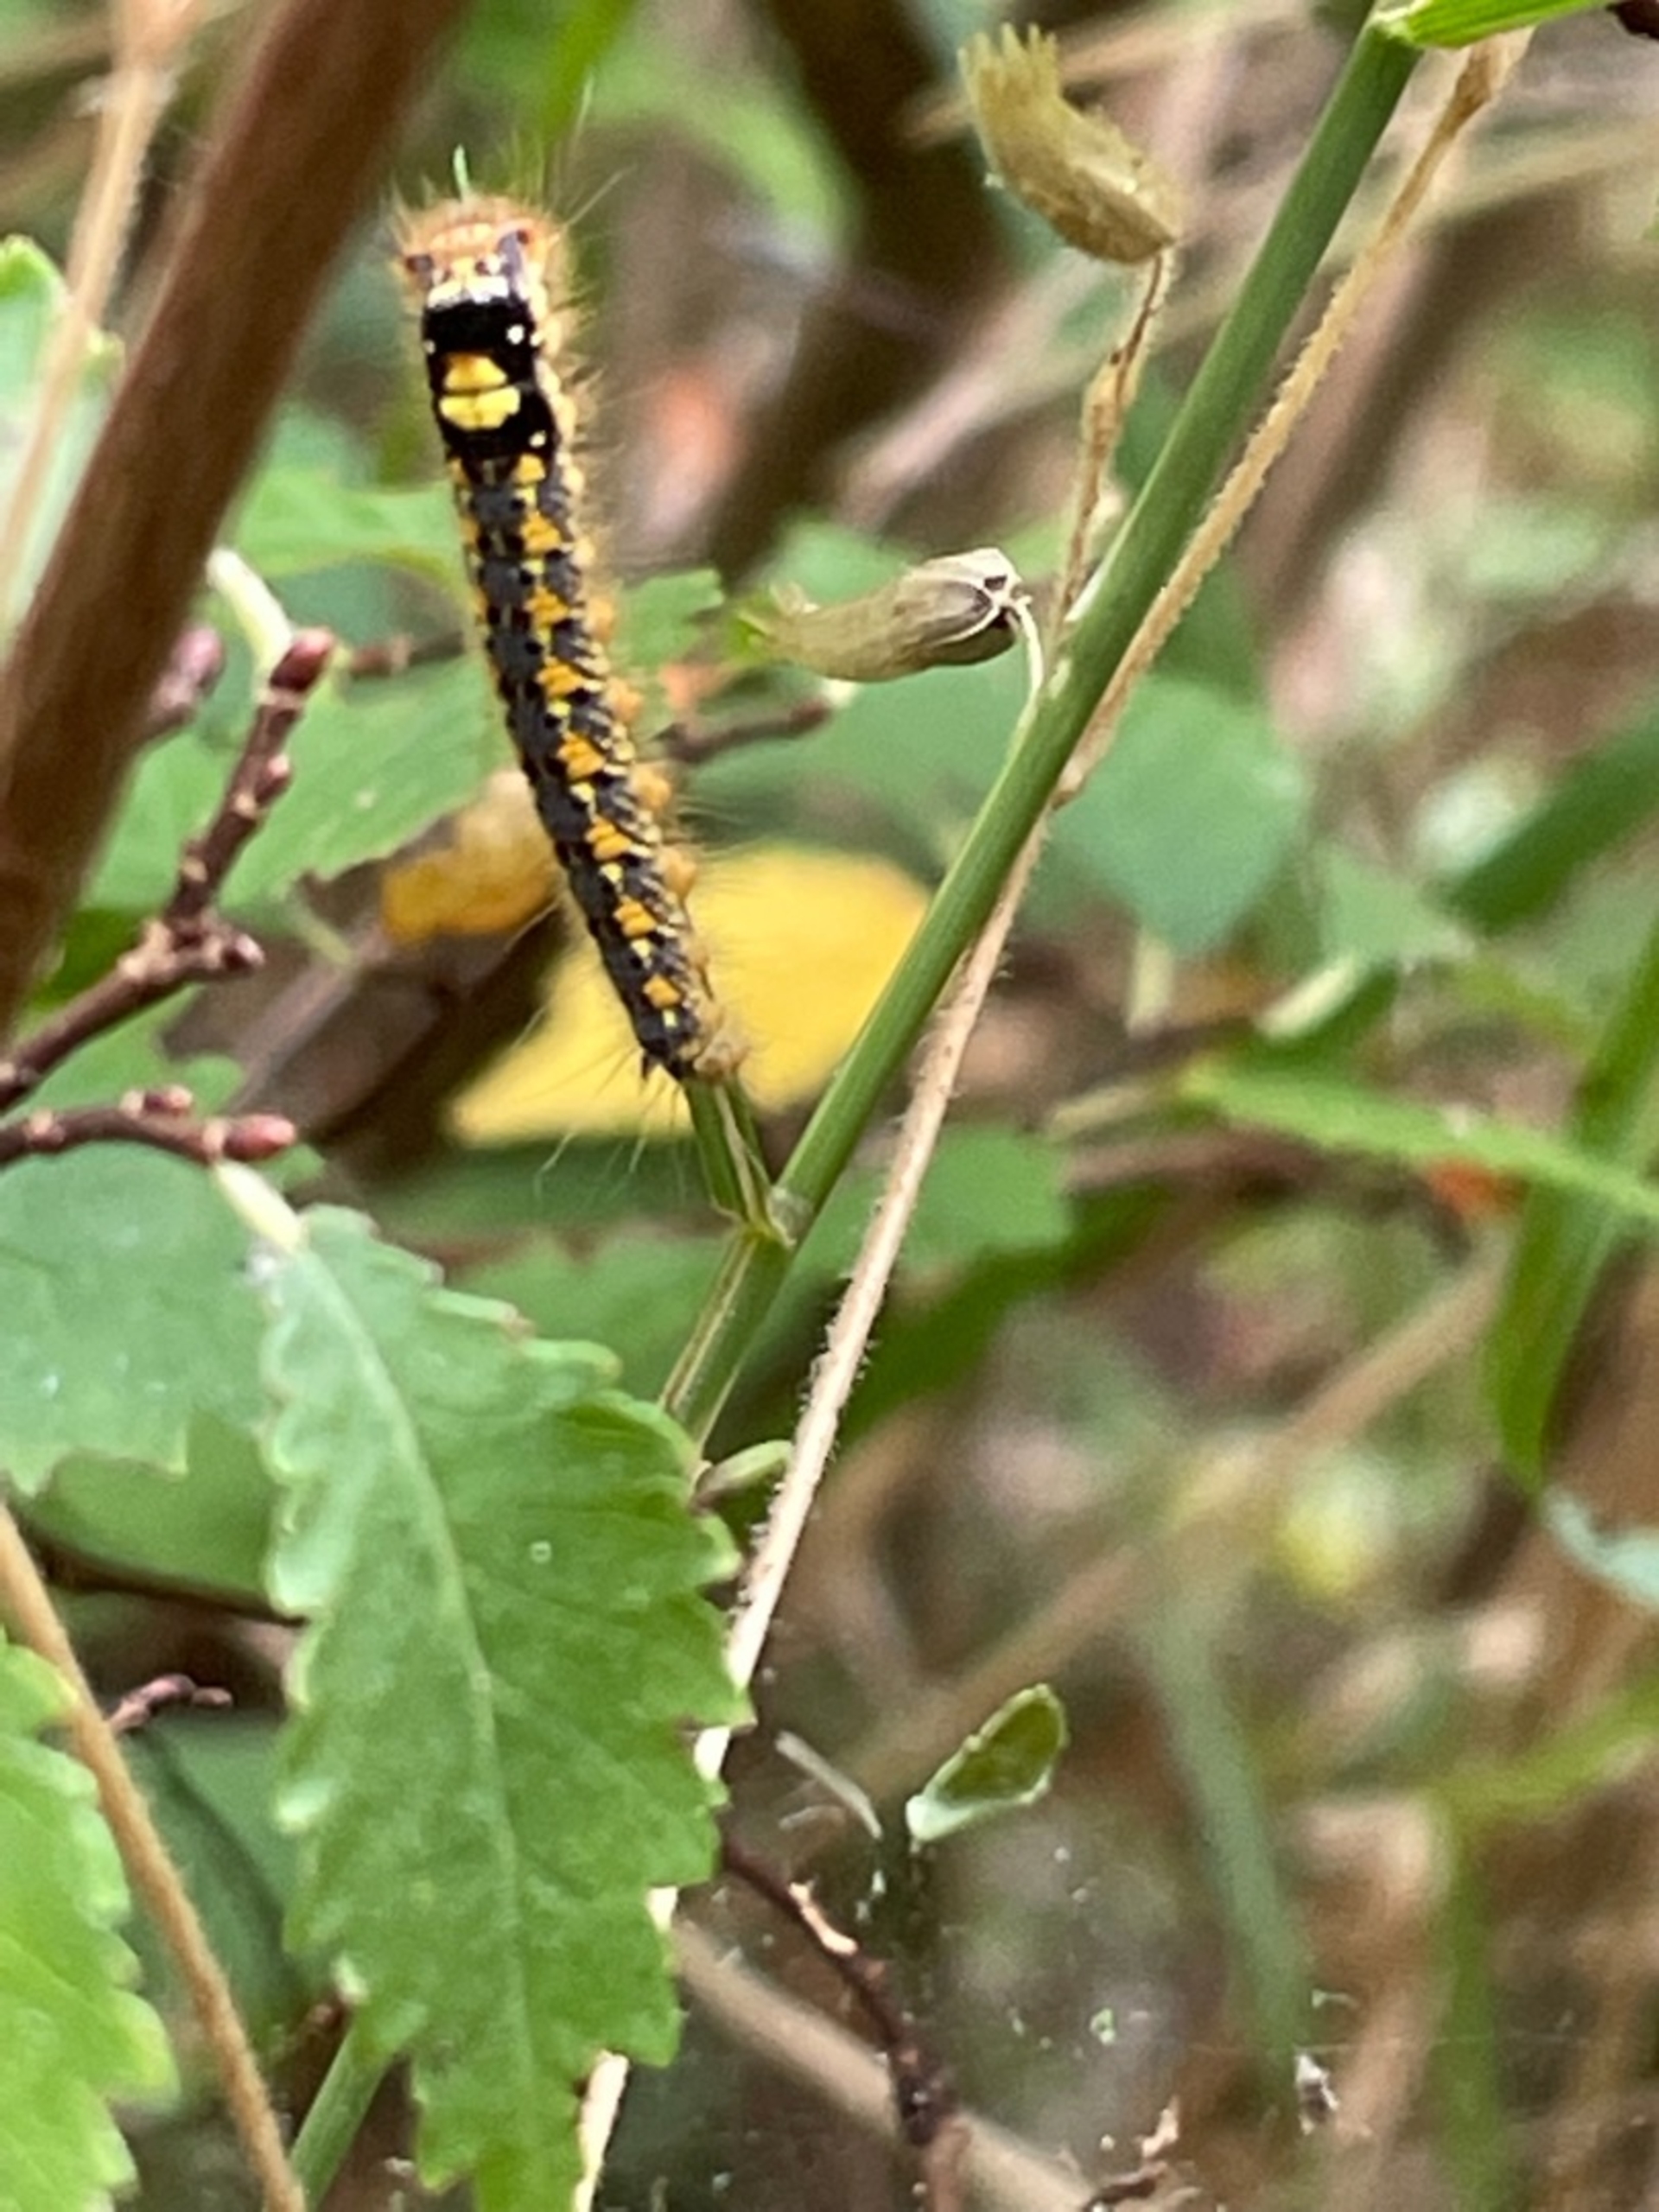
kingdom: Animalia
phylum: Arthropoda
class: Insecta
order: Lepidoptera
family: Lasiocampidae
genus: Euthrix
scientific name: Euthrix potatoria
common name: Græsspinder
